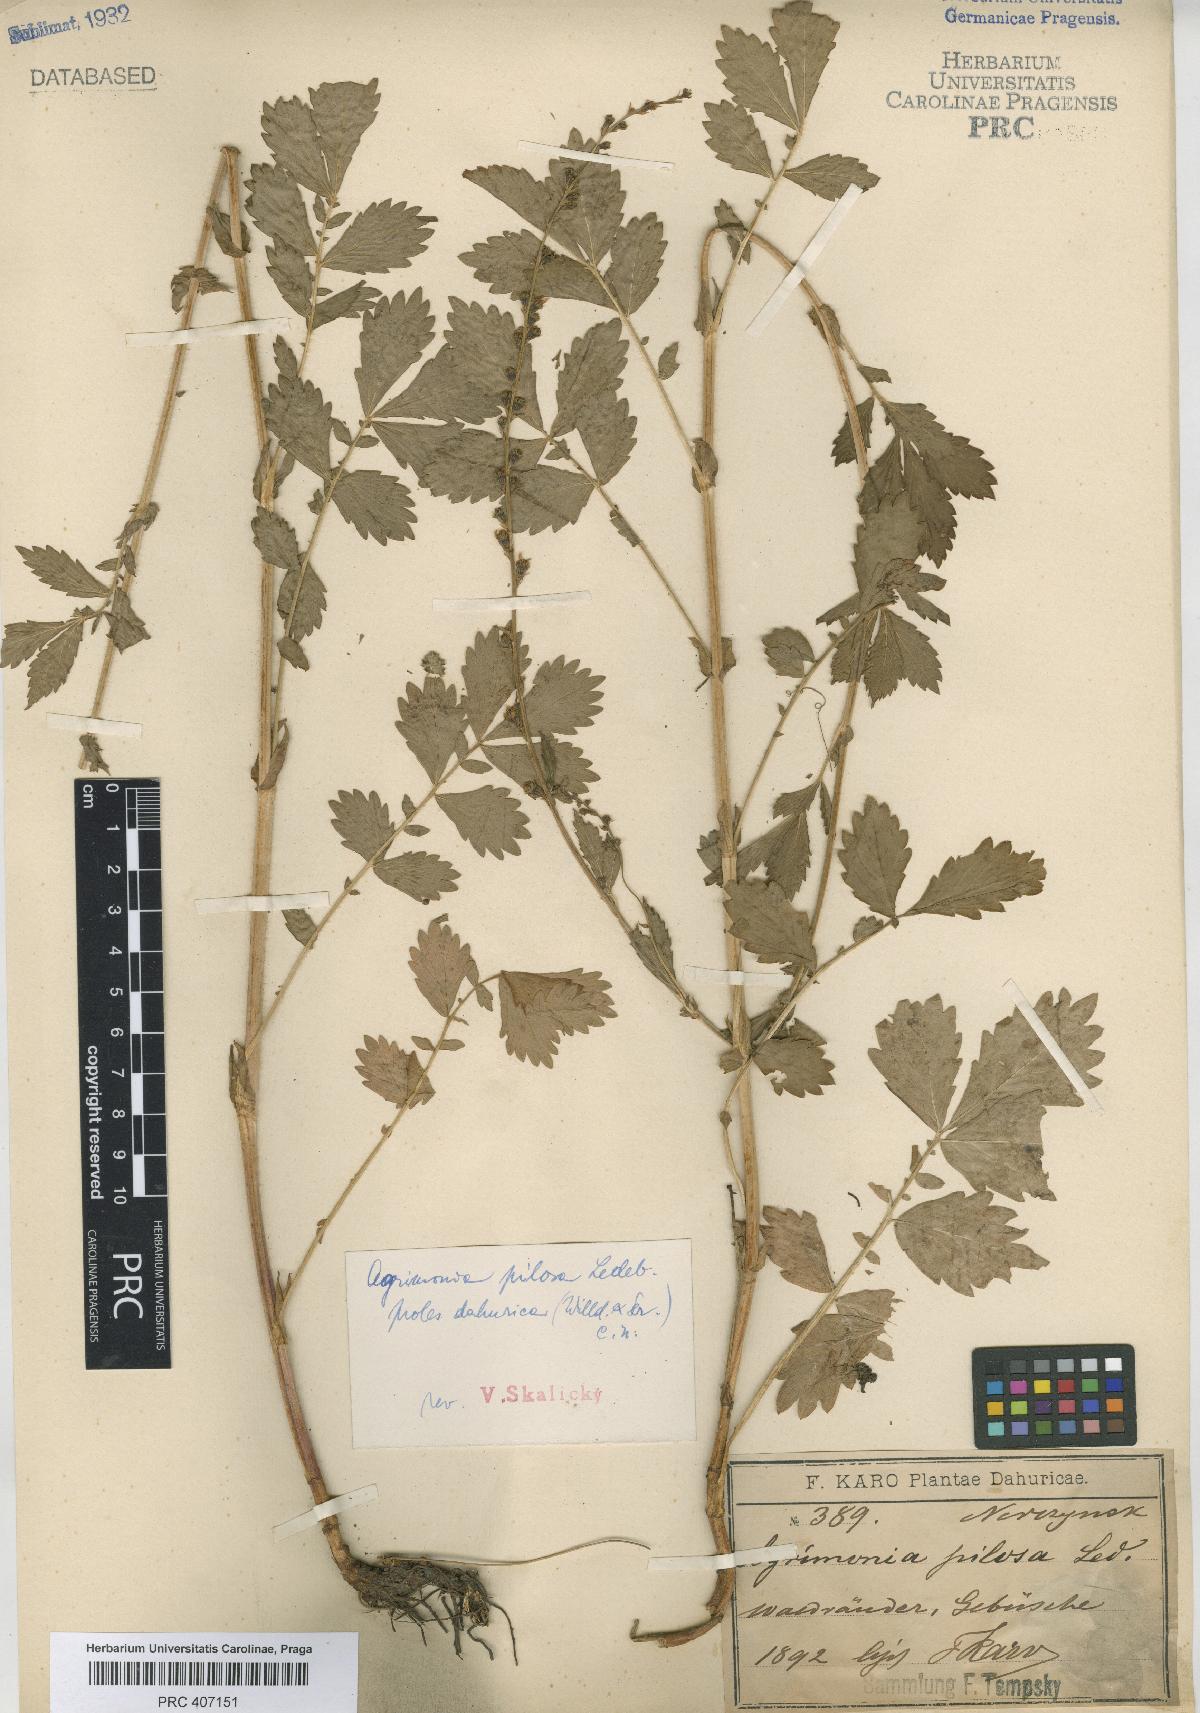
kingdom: Plantae
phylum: Tracheophyta
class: Magnoliopsida
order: Rosales
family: Rosaceae
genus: Agrimonia
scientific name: Agrimonia pilosa
